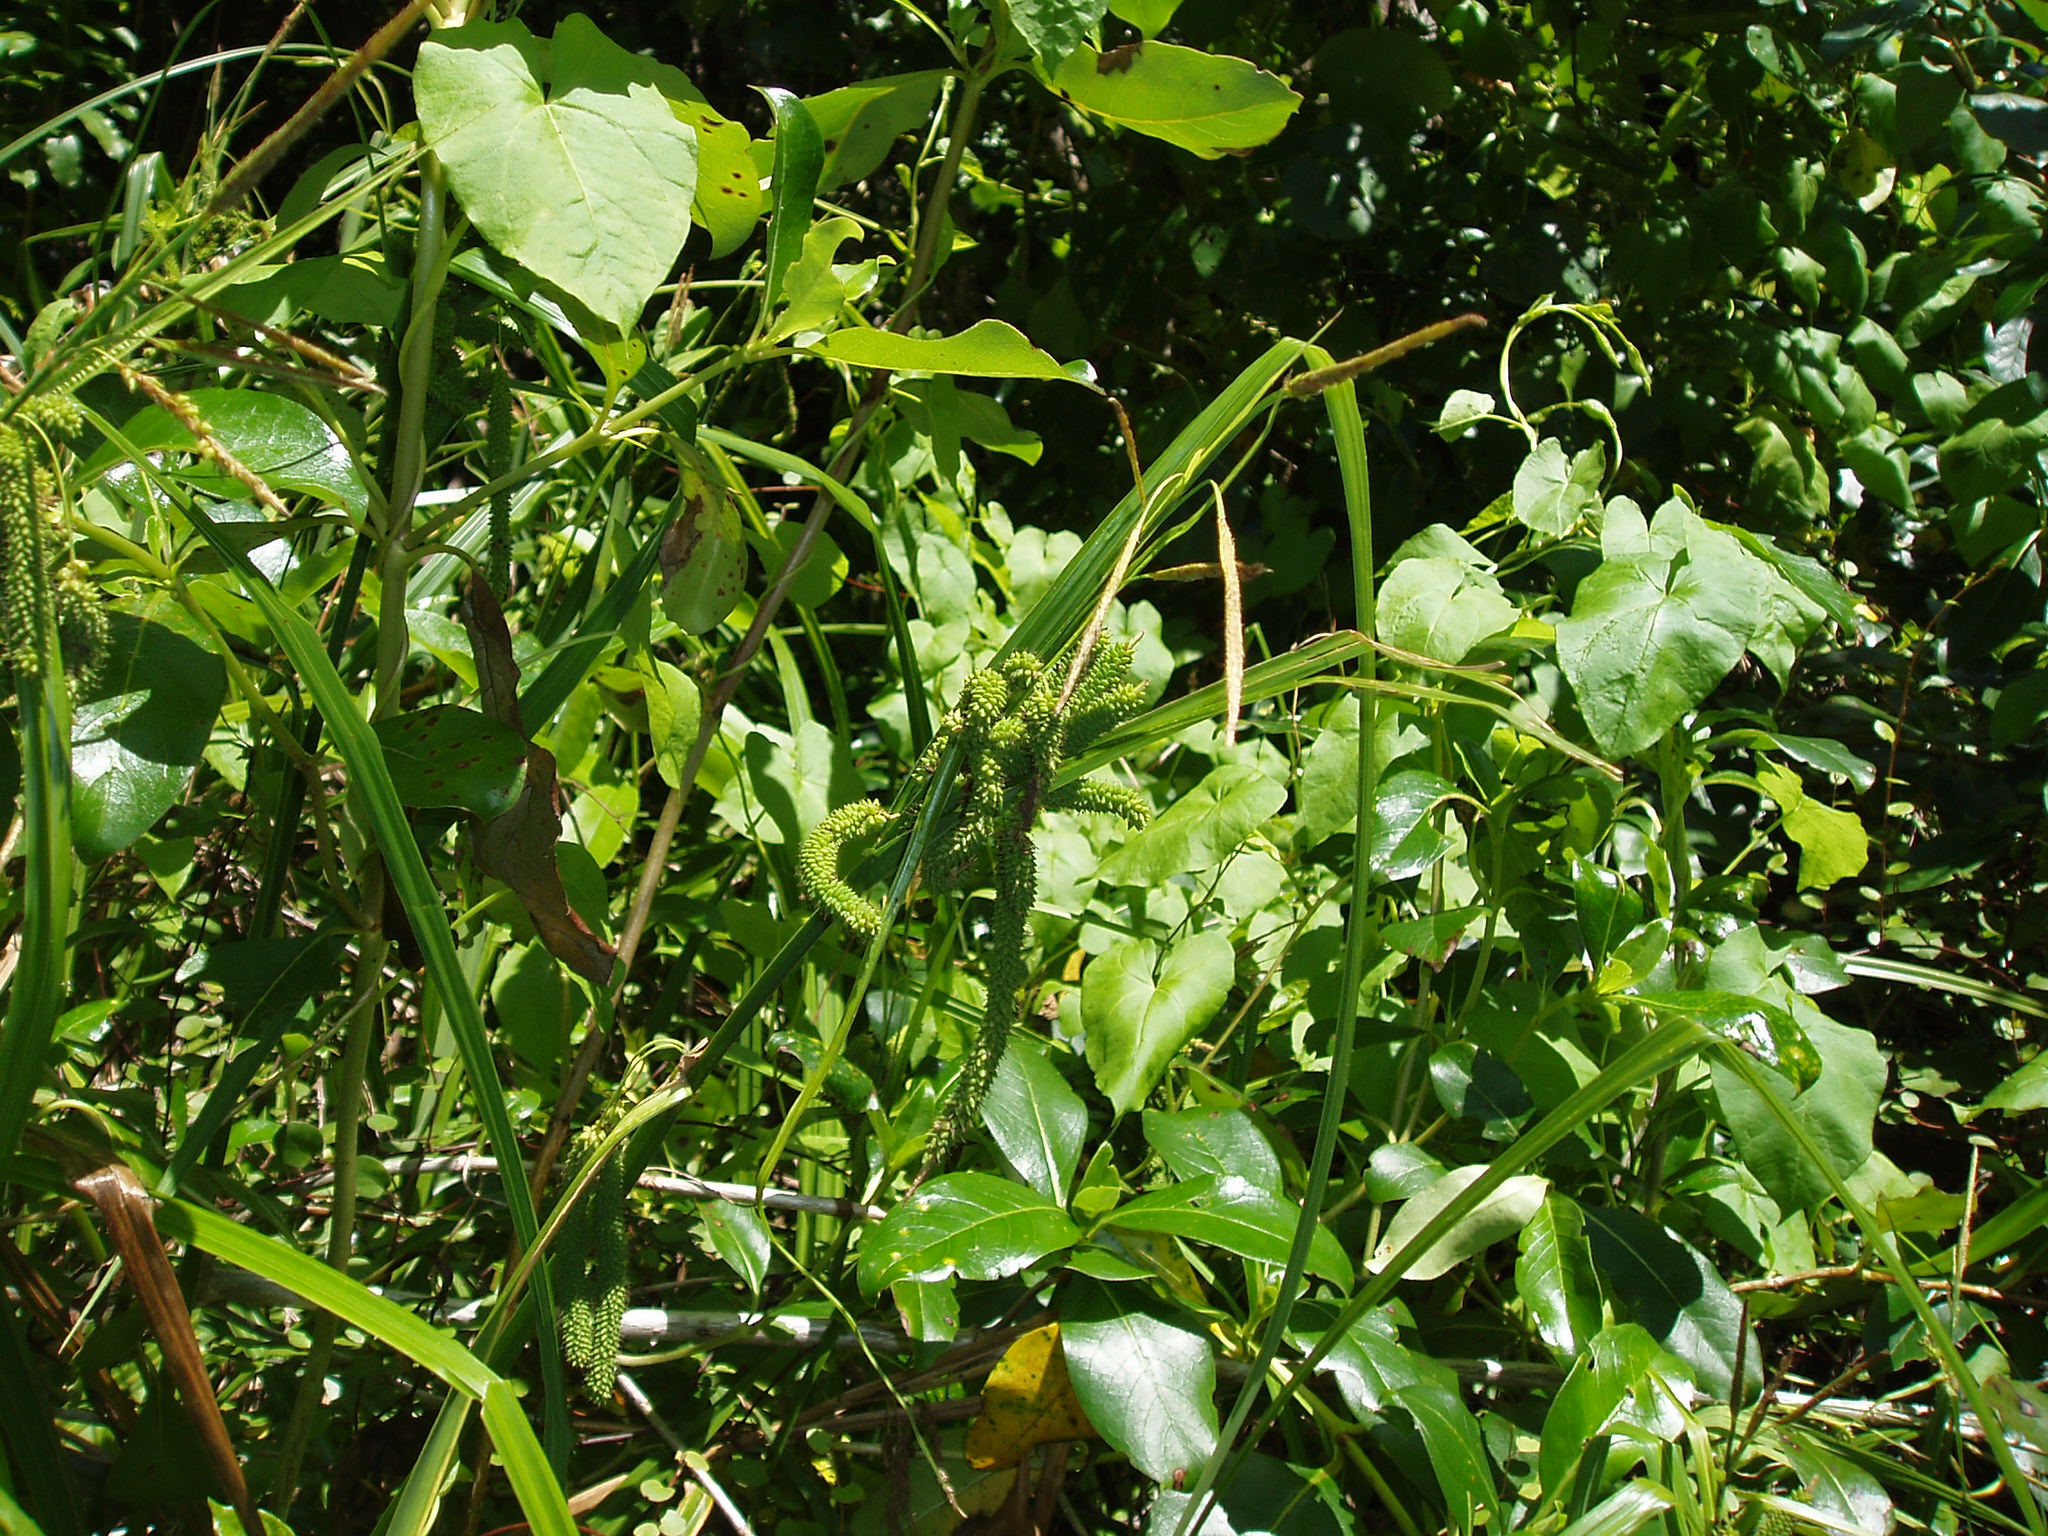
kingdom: Plantae
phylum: Tracheophyta
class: Liliopsida
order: Poales
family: Cyperaceae
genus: Carex
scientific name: Carex geminata
